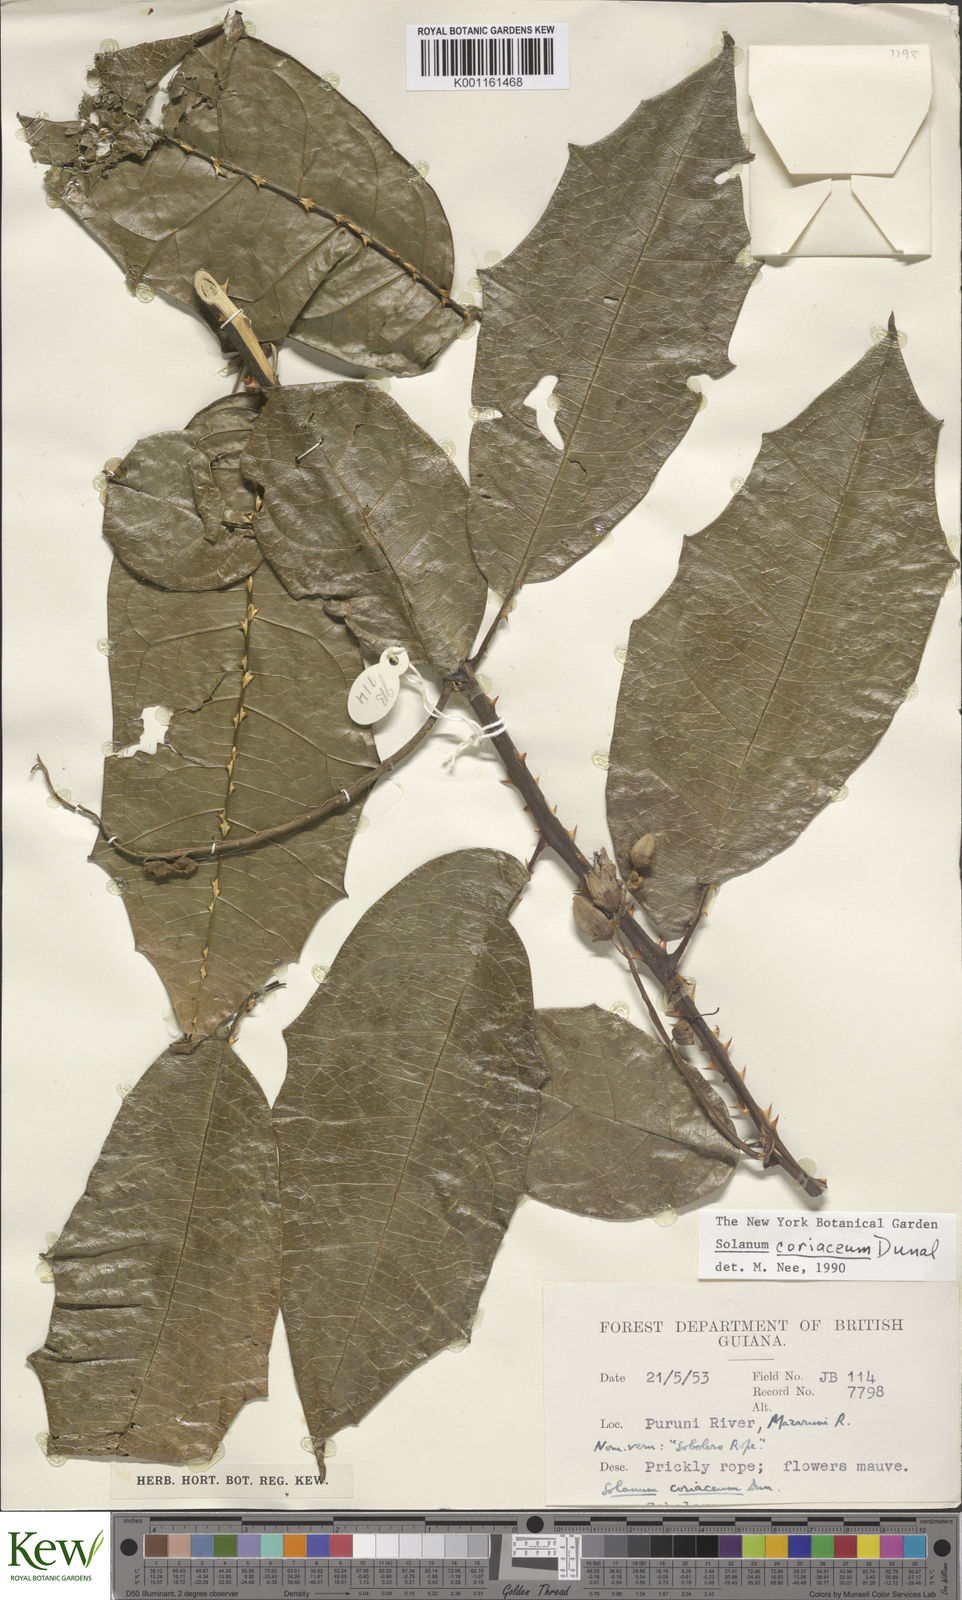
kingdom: Plantae
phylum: Tracheophyta
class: Magnoliopsida
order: Solanales
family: Solanaceae
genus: Solanum
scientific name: Solanum coriaceum
